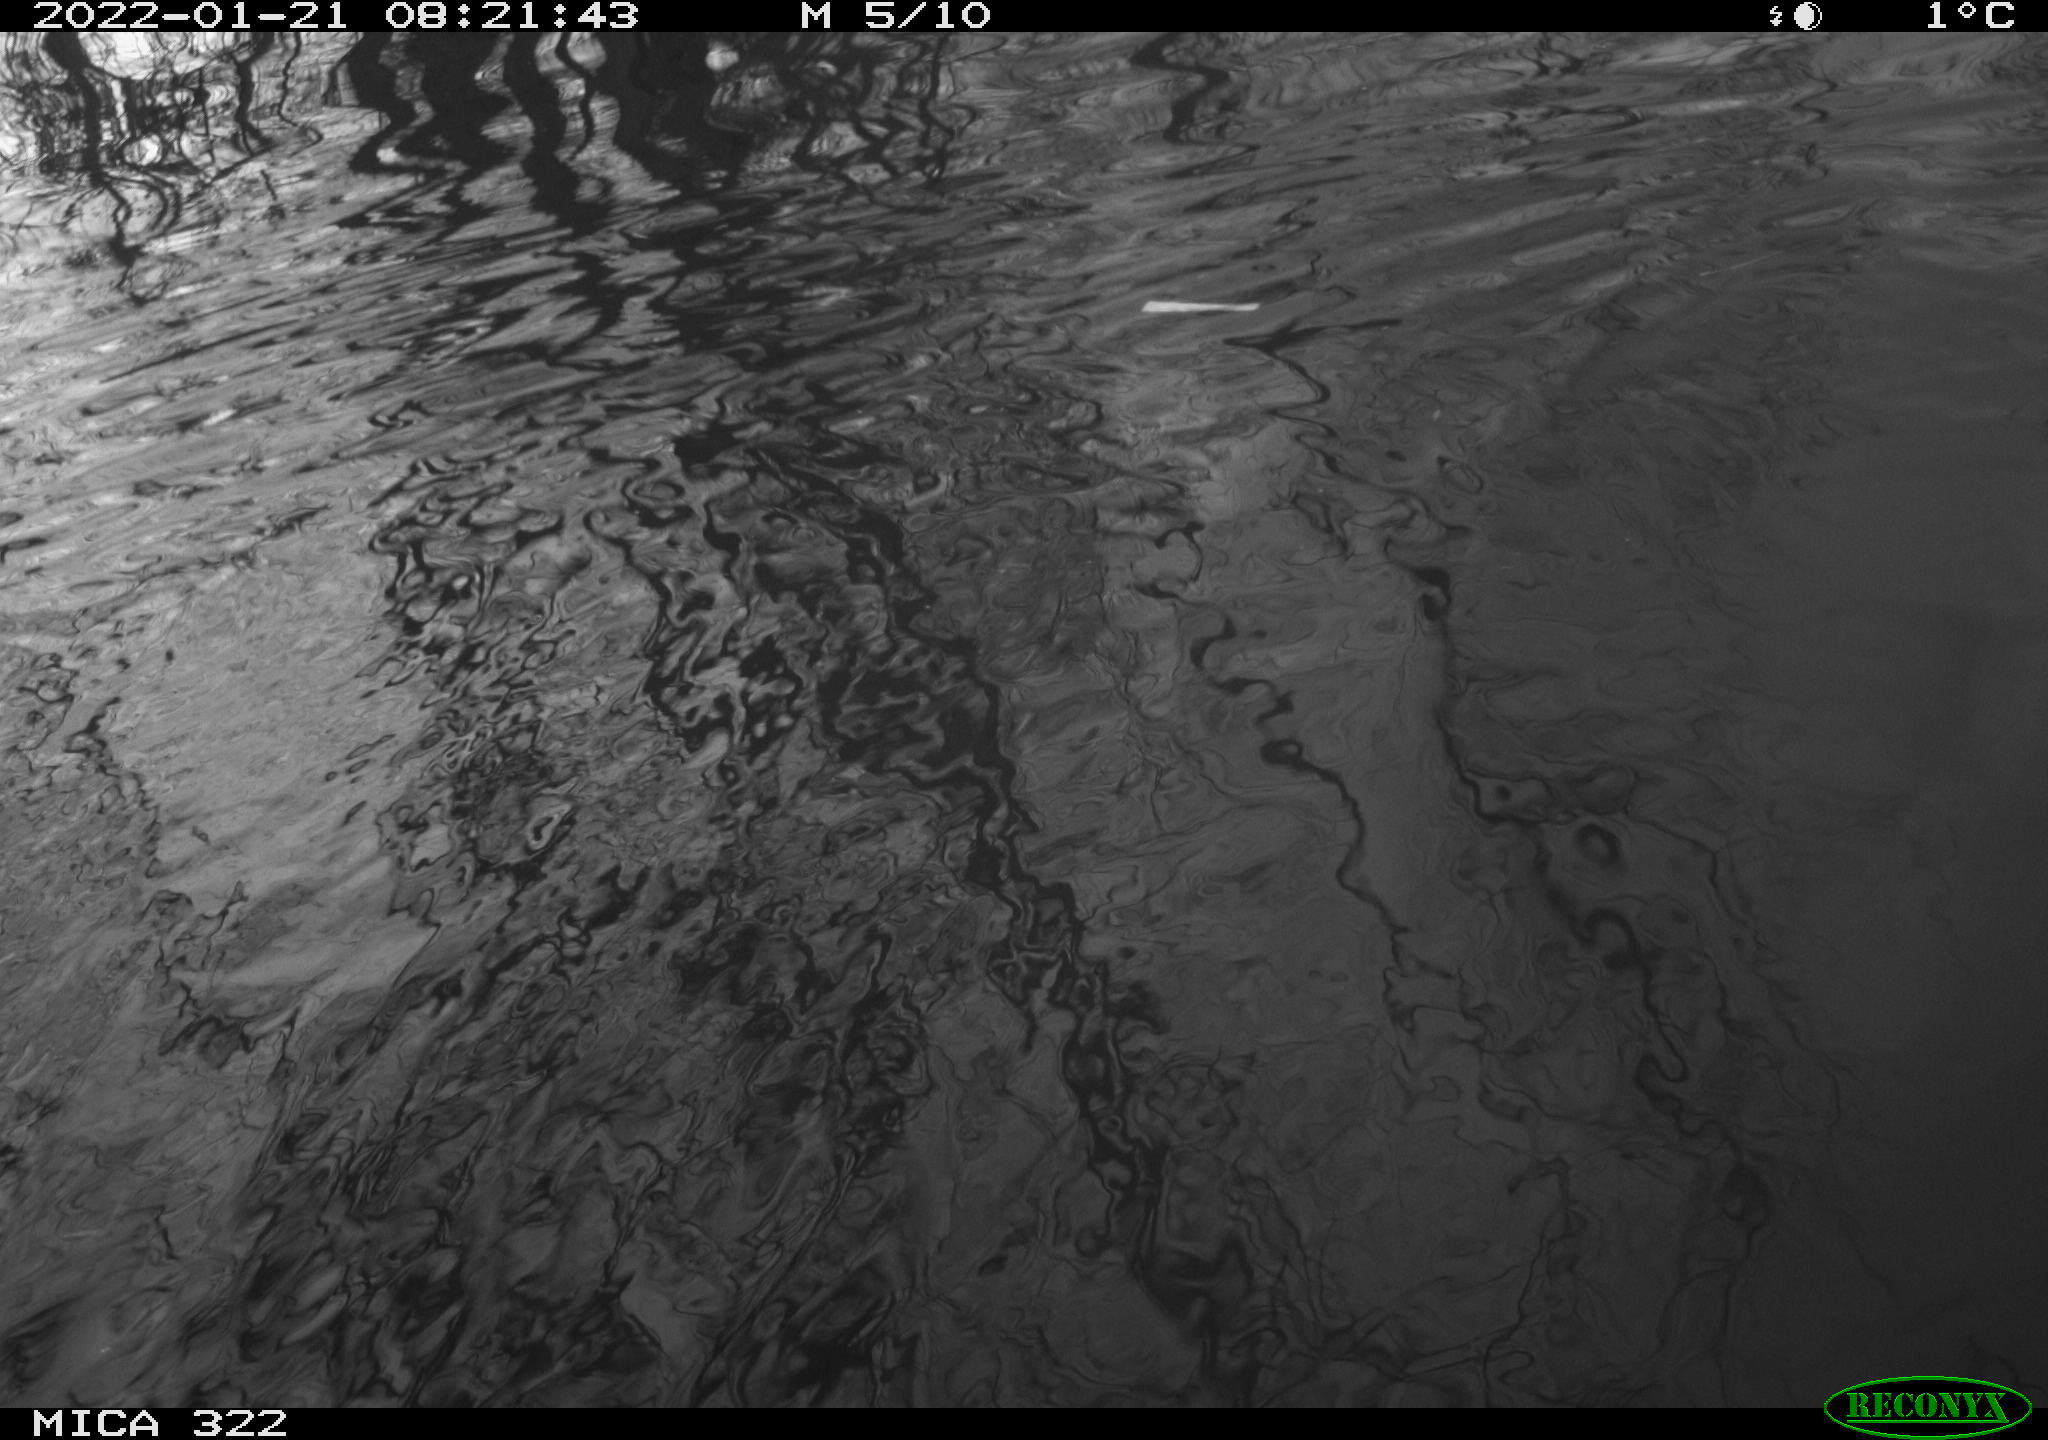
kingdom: Animalia
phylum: Chordata
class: Aves
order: Anseriformes
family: Anatidae
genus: Anas
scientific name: Anas
